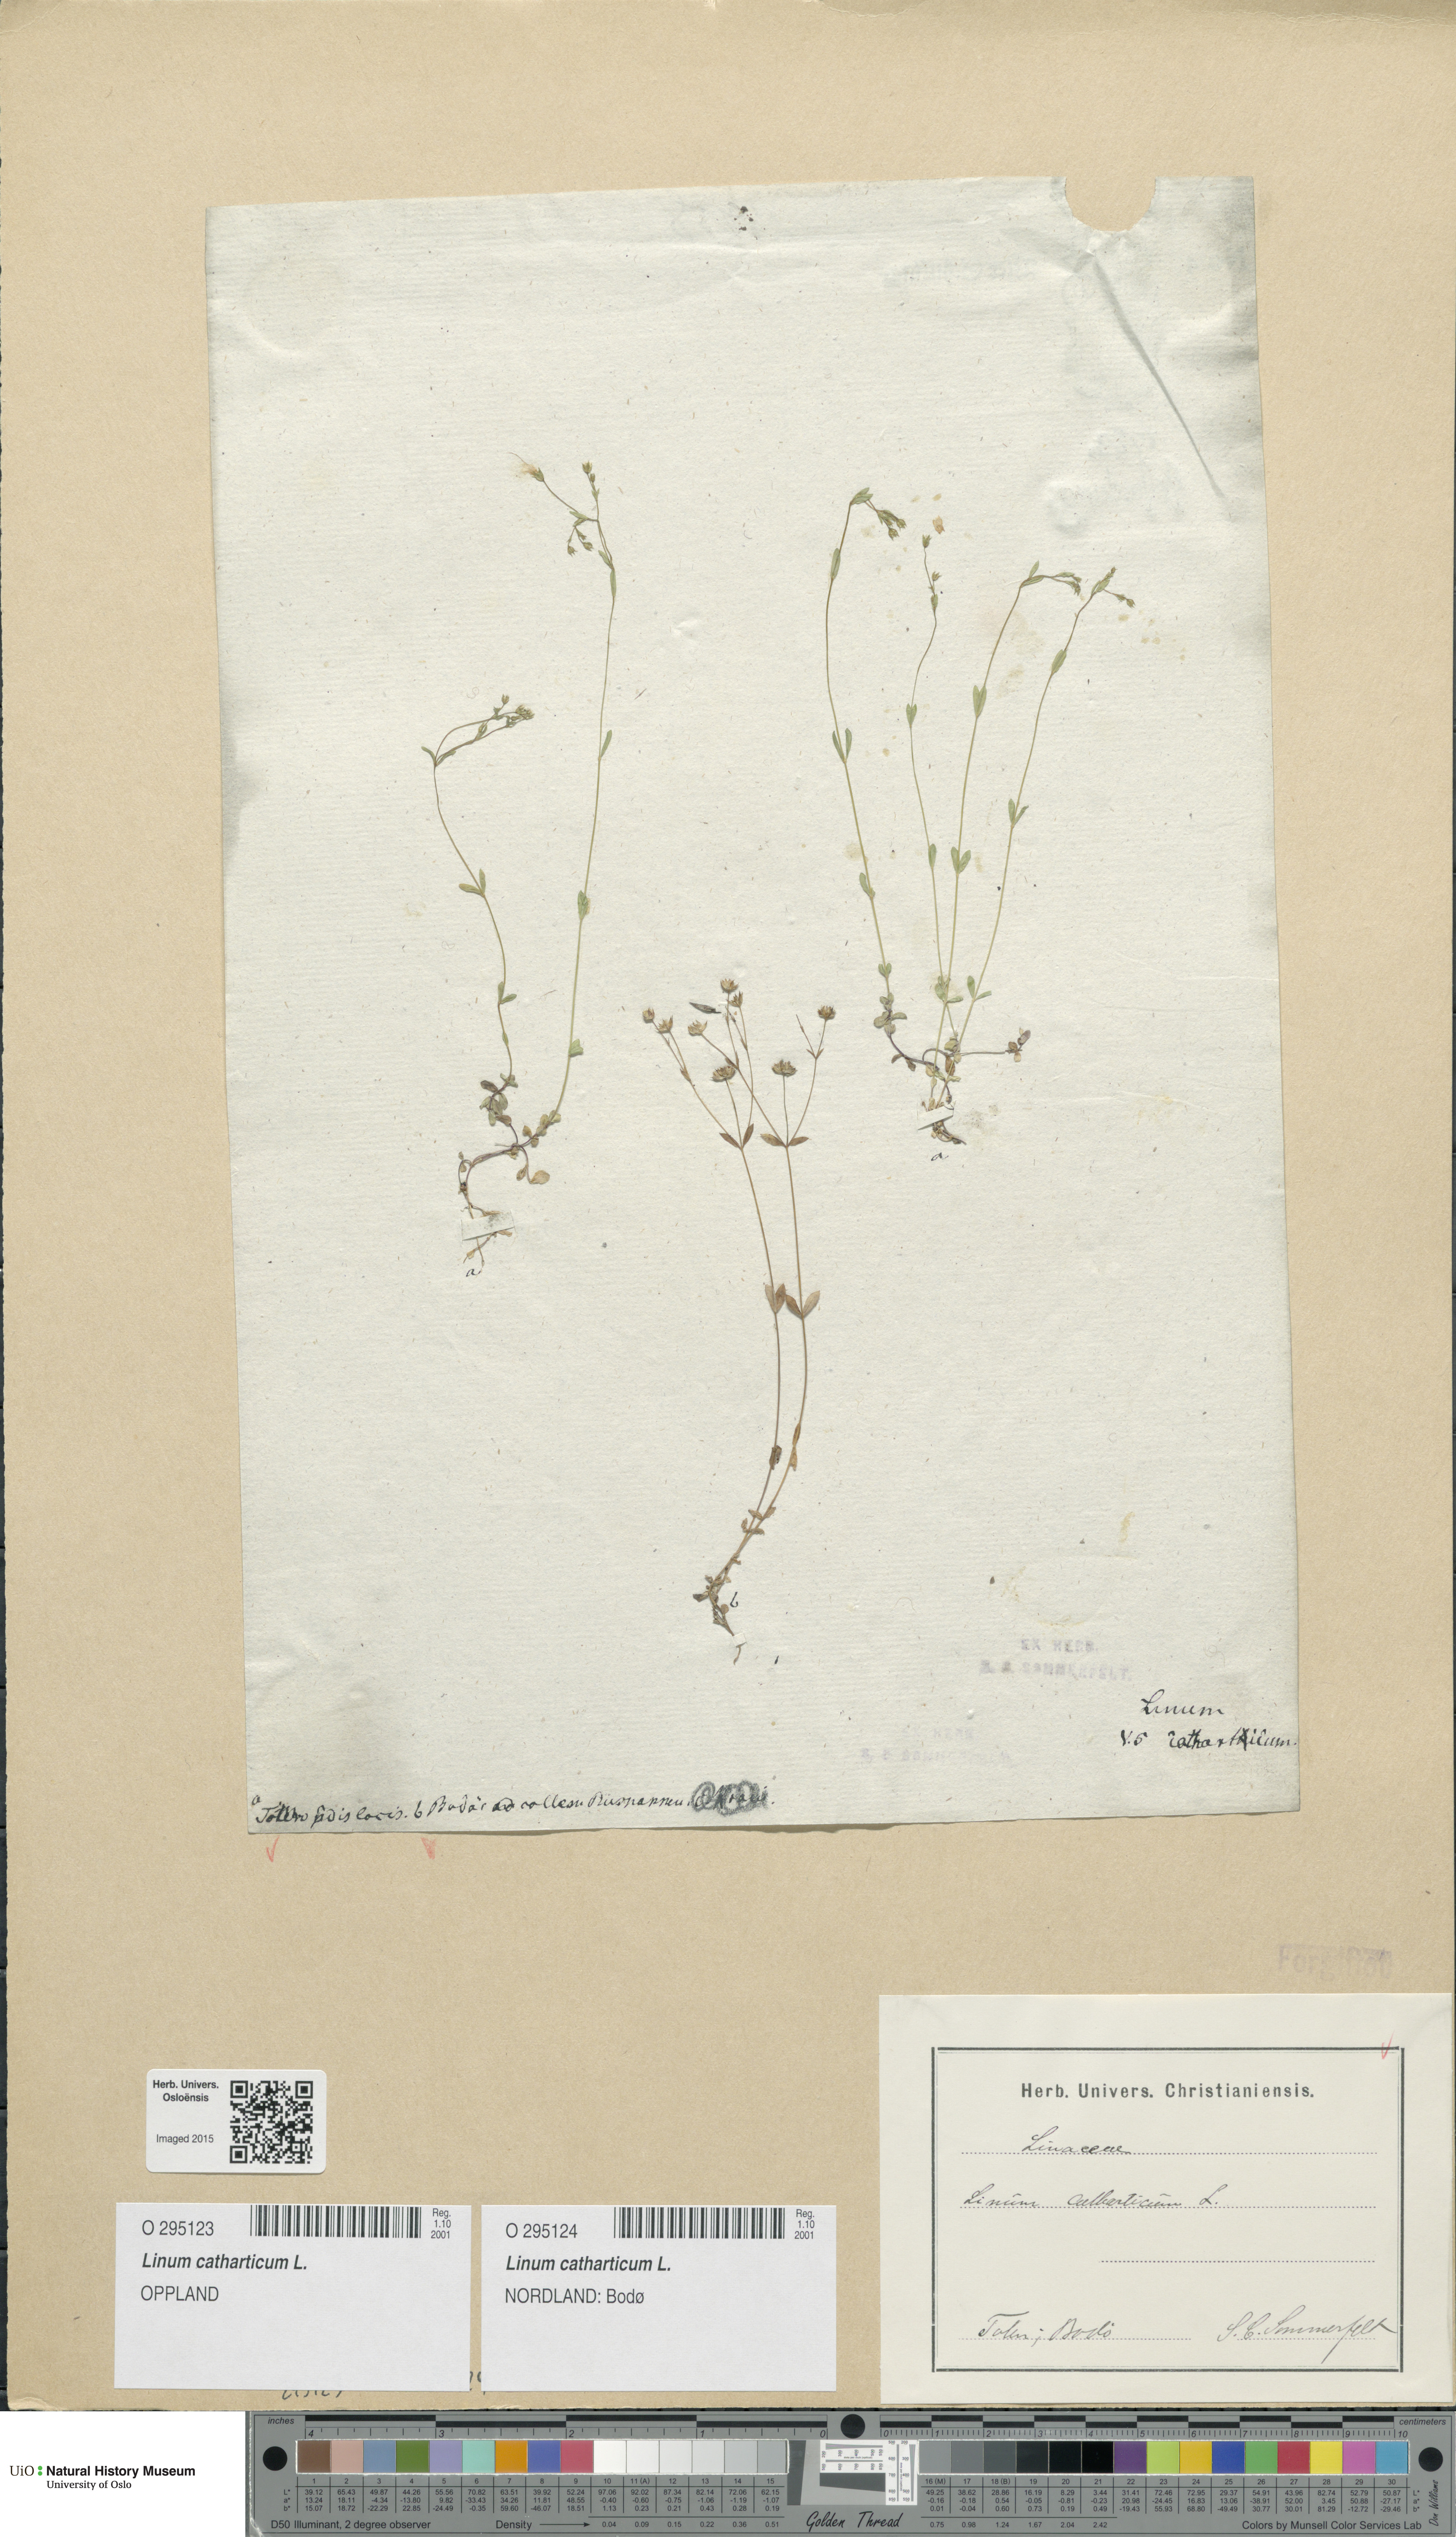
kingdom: Plantae
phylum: Tracheophyta
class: Magnoliopsida
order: Malpighiales
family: Linaceae
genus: Linum
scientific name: Linum catharticum
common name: Fairy flax
